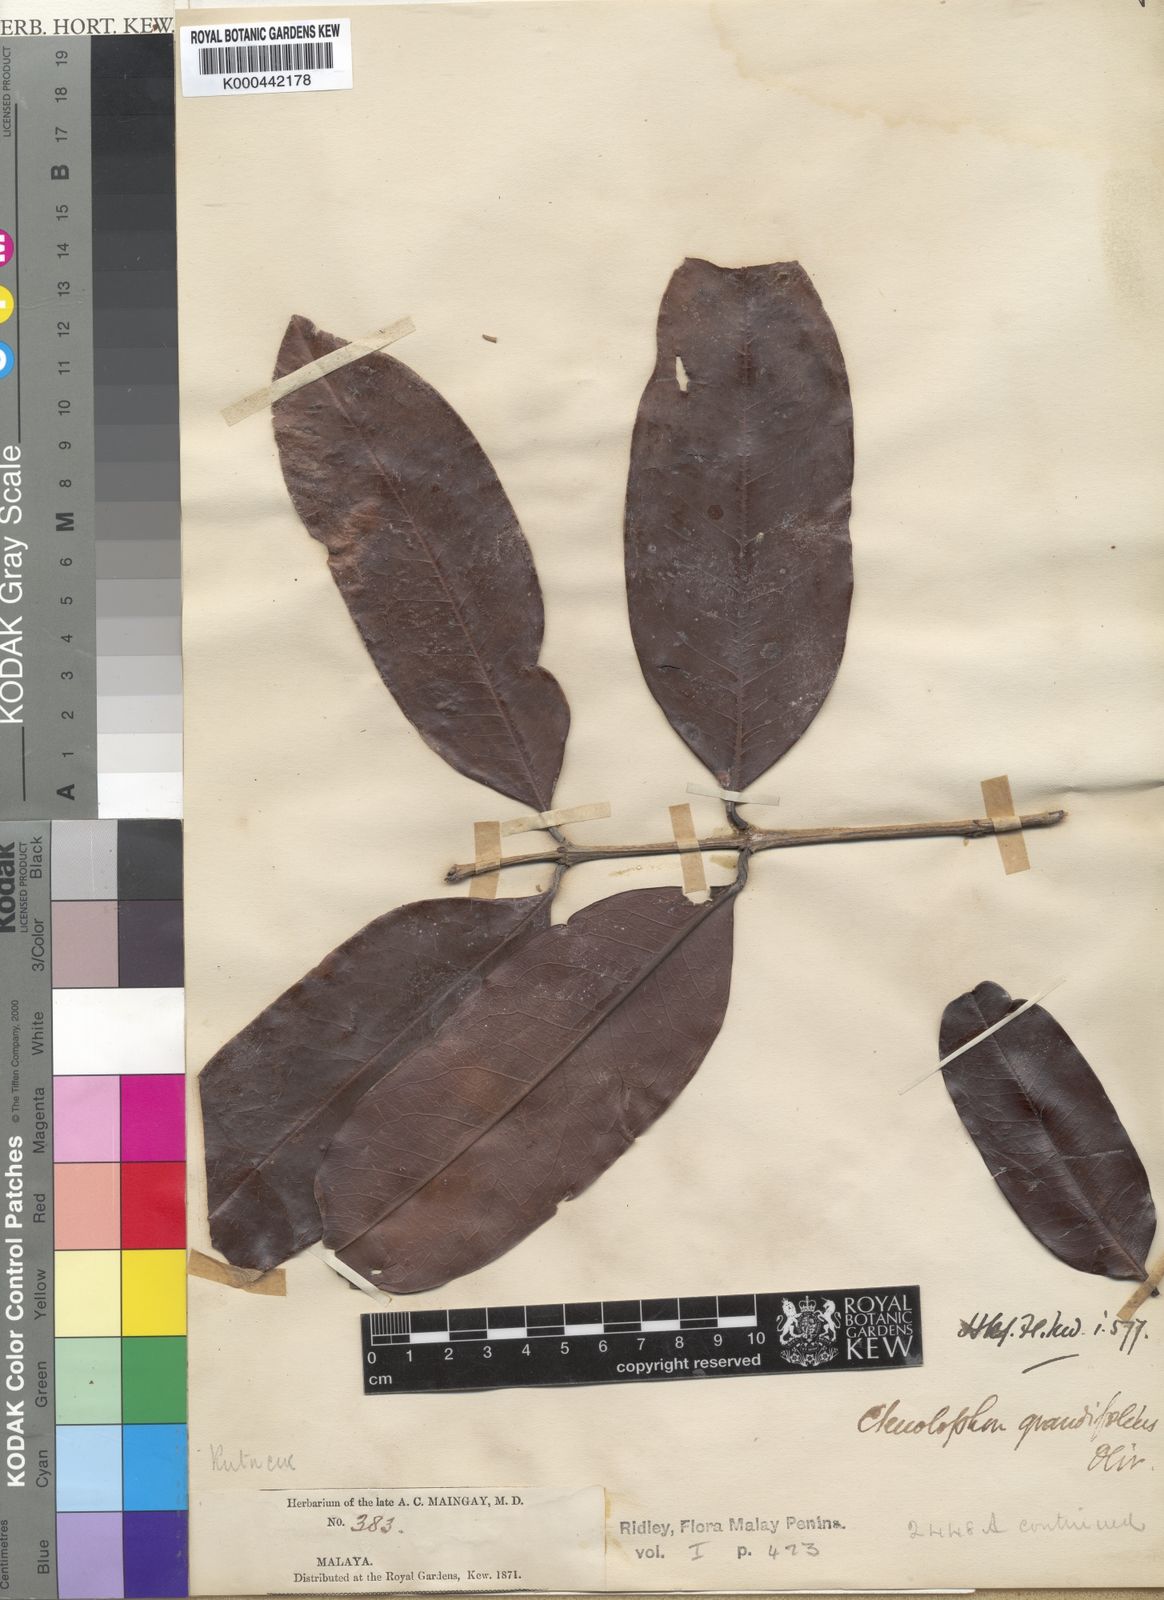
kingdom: Plantae
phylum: Tracheophyta
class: Magnoliopsida
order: Malpighiales
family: Ctenolophonaceae
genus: Ctenolophon
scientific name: Ctenolophon parvifolius
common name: Mertas
